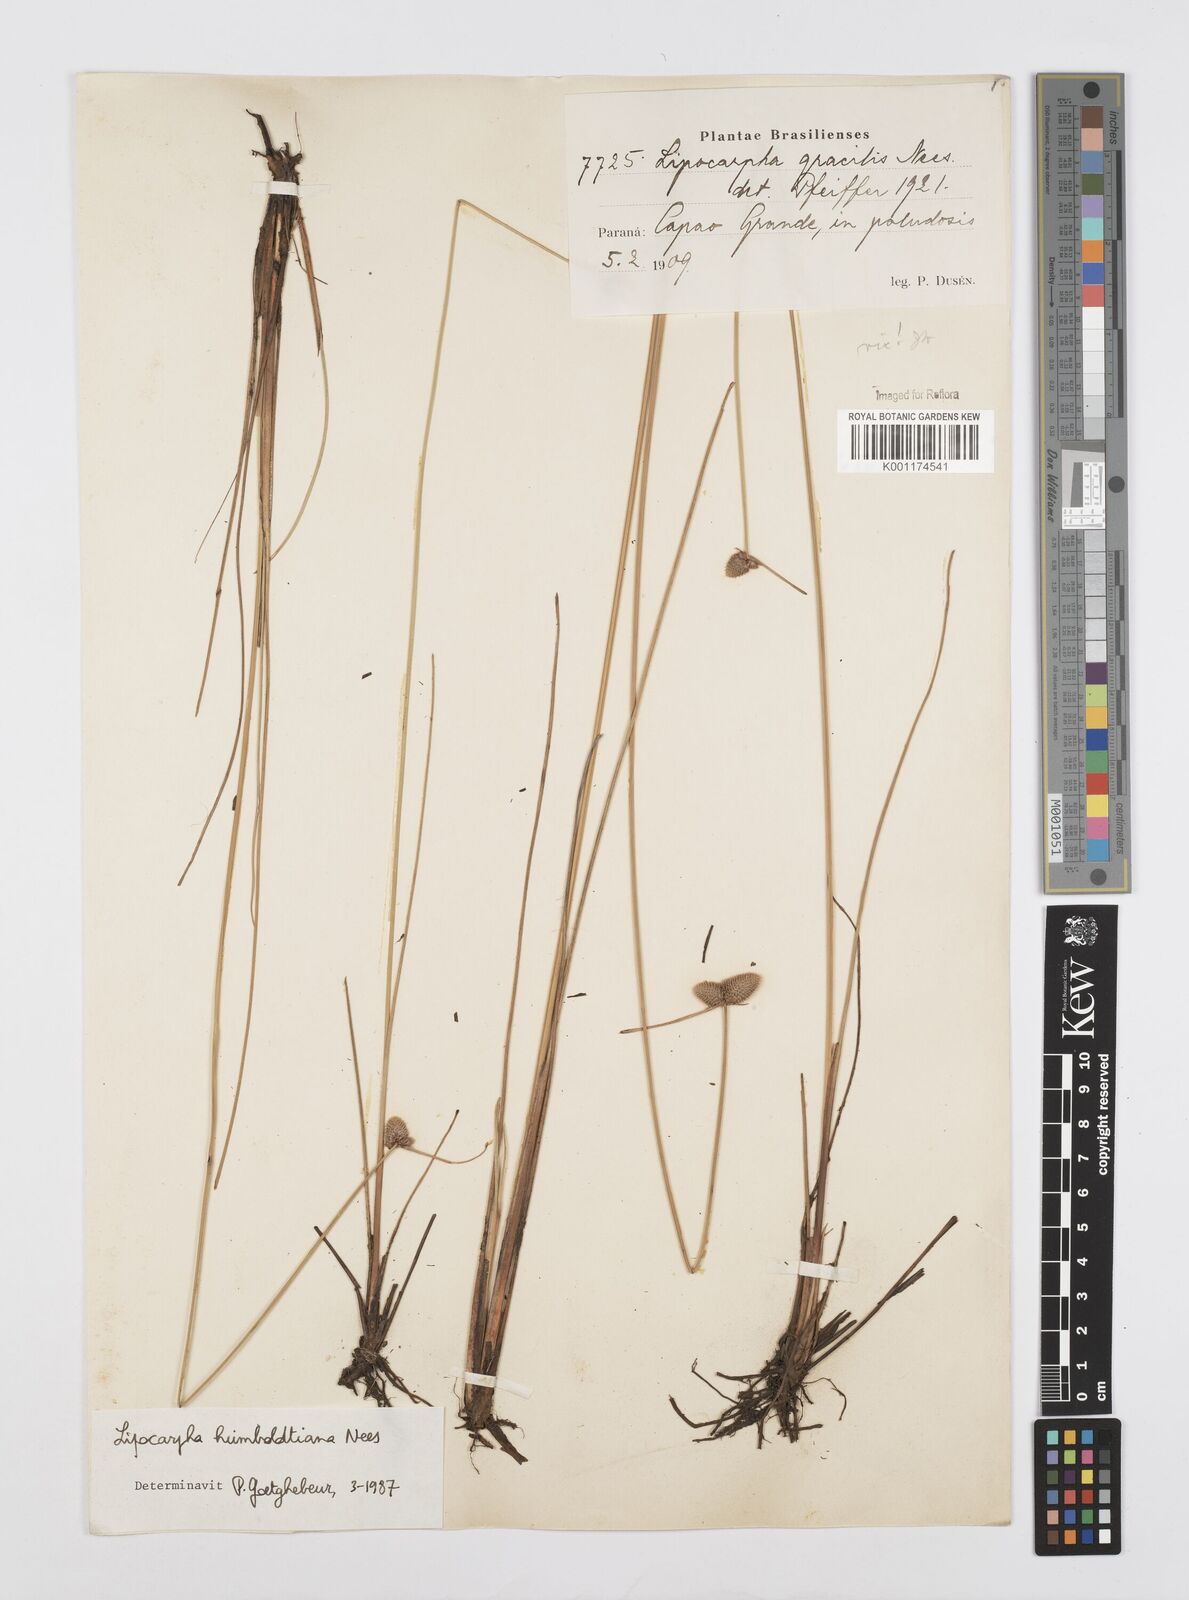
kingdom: Plantae
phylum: Tracheophyta
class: Liliopsida
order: Poales
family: Cyperaceae
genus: Cyperus
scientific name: Cyperus lanceolatus
